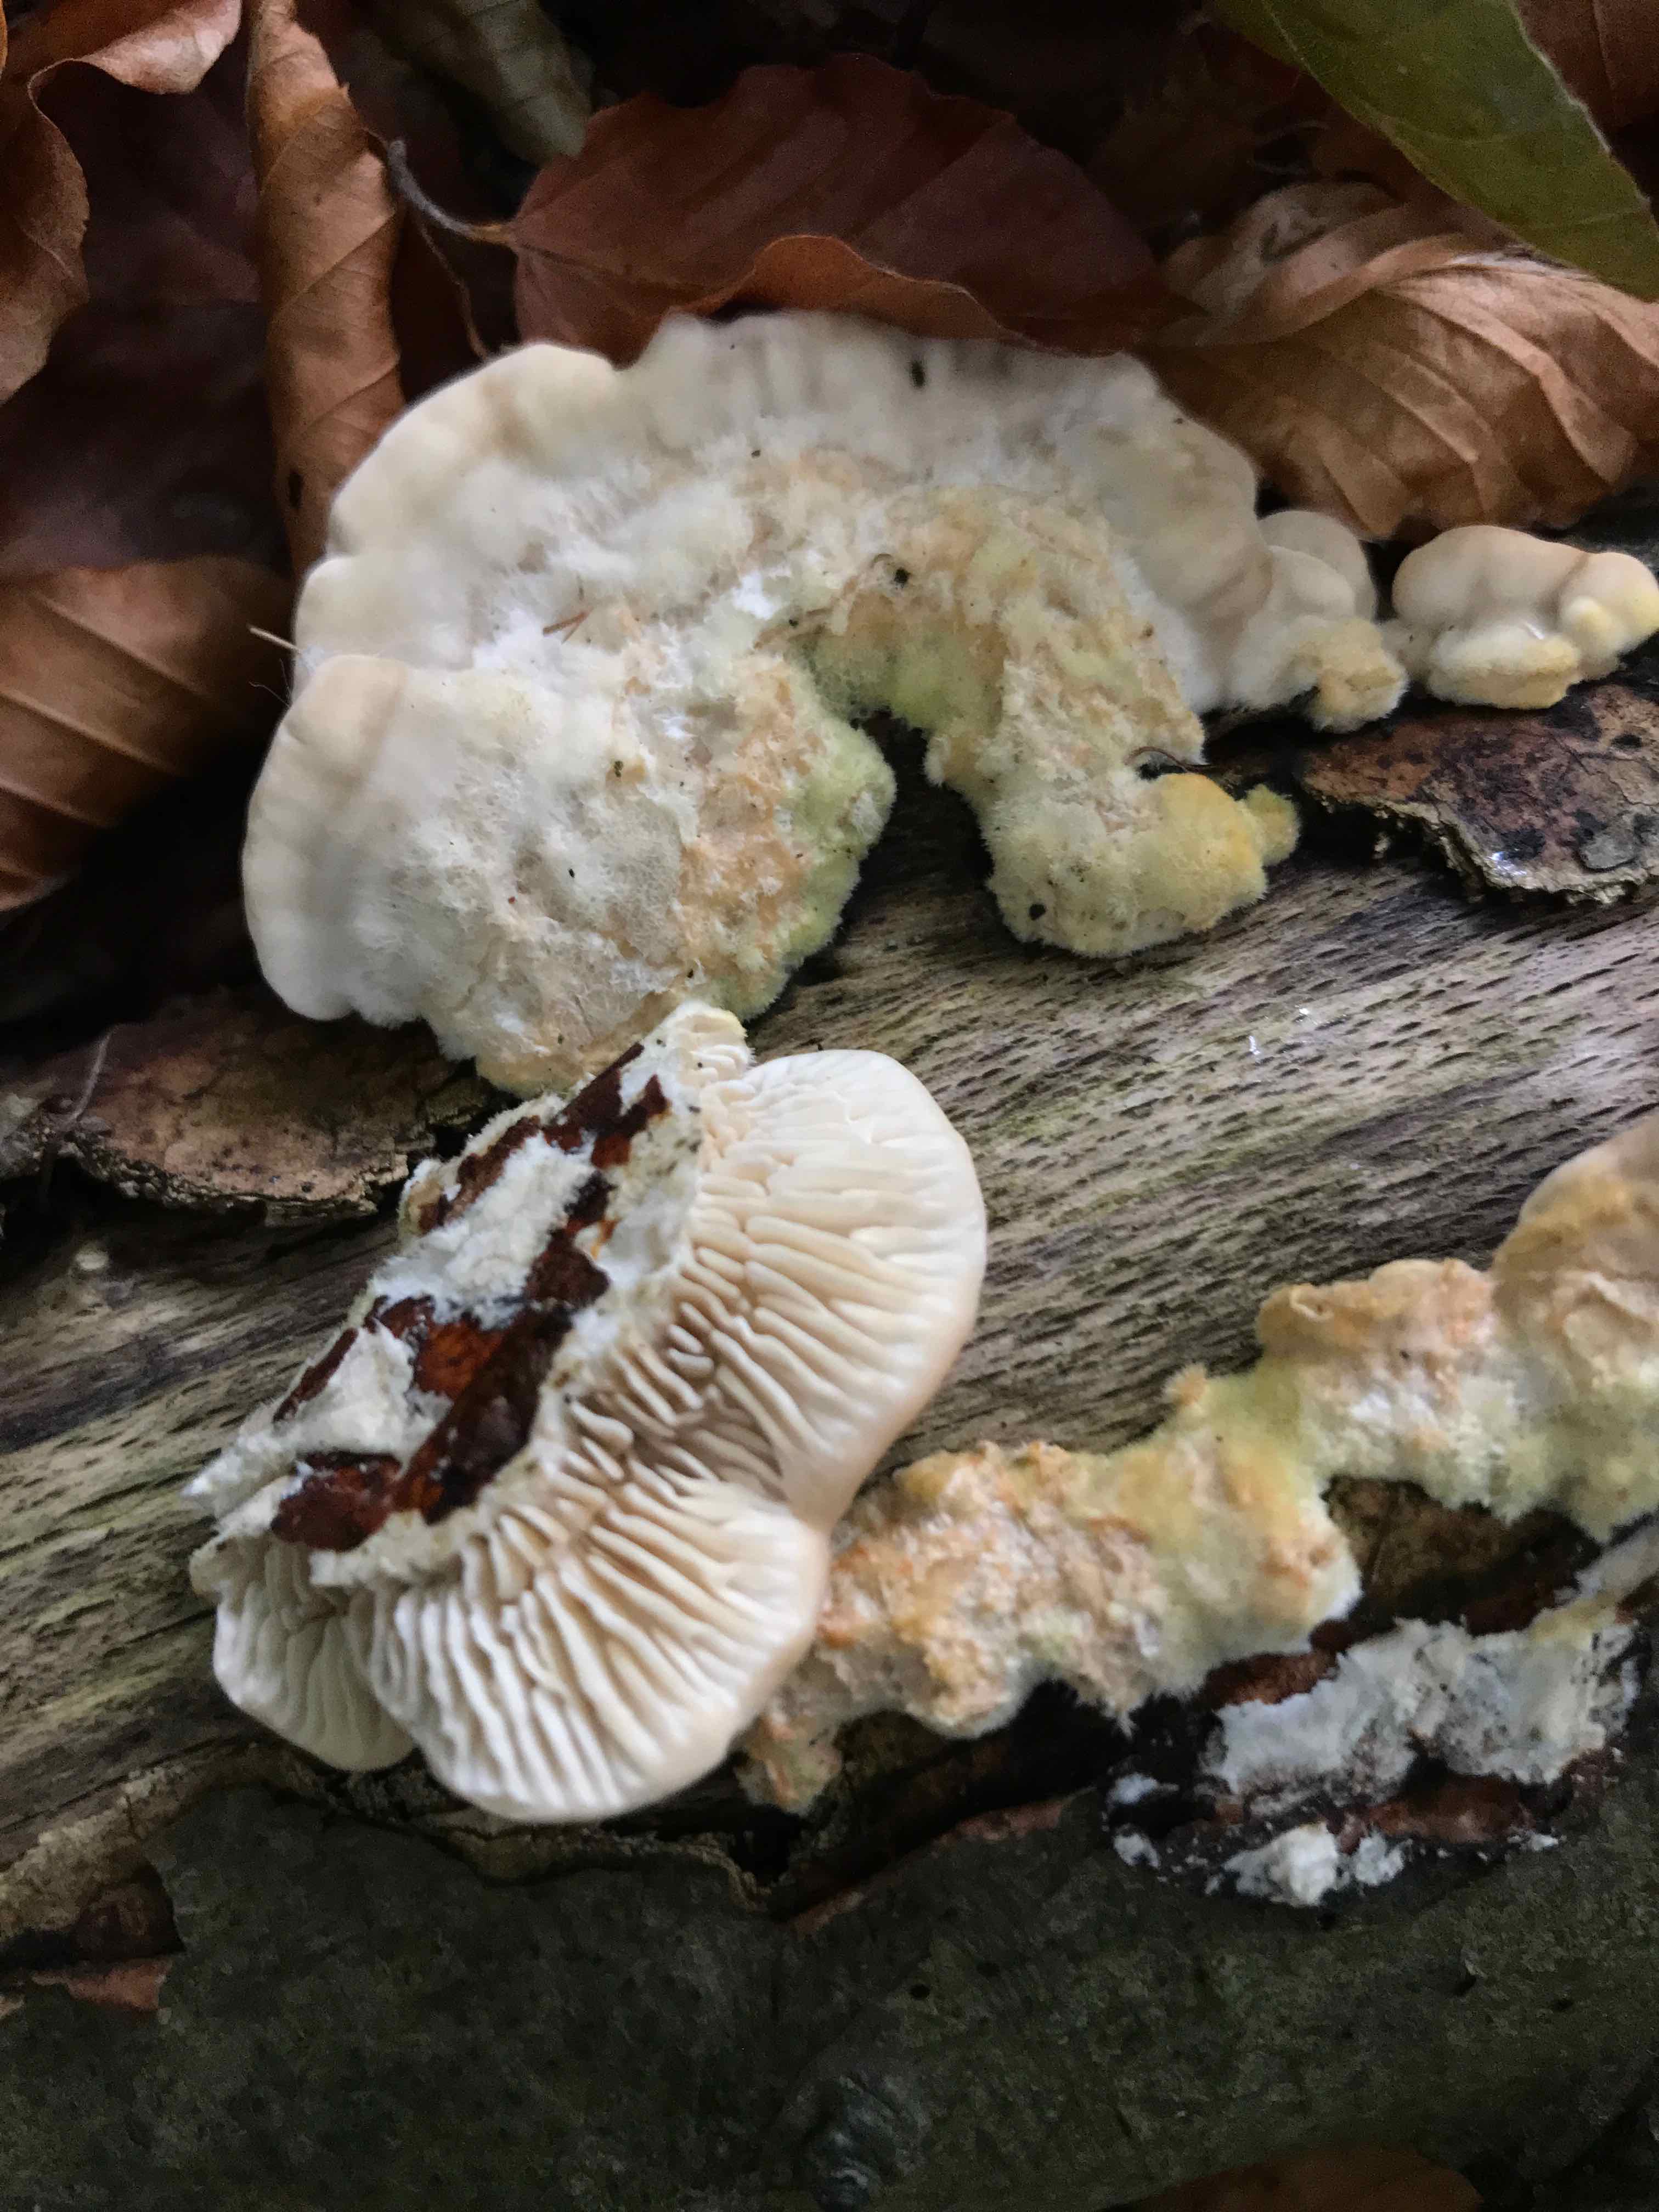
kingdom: Fungi
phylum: Basidiomycota
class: Agaricomycetes
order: Polyporales
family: Polyporaceae
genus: Lenzites
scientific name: Lenzites betulinus
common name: birke-læderporesvamp
